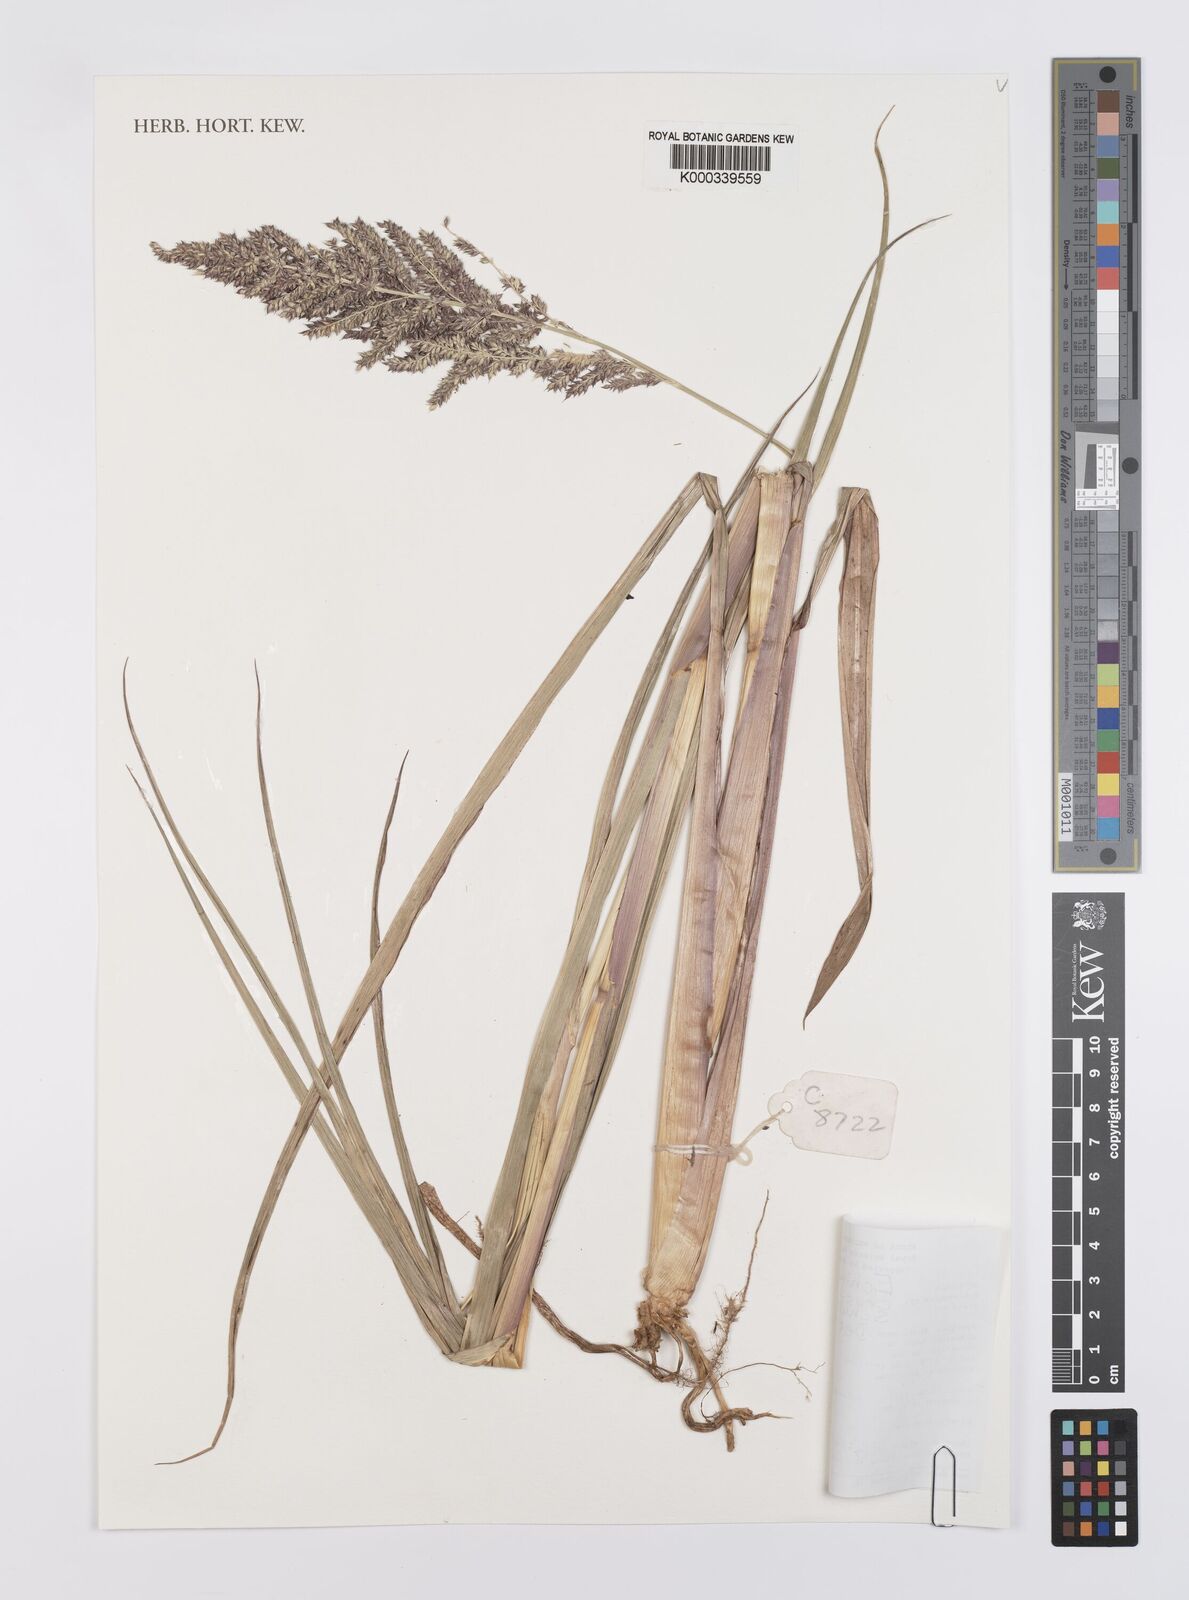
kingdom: Plantae
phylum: Tracheophyta
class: Liliopsida
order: Poales
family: Poaceae
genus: Echinochloa
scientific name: Echinochloa crus-pavonis
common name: Gulf cockspur grass
